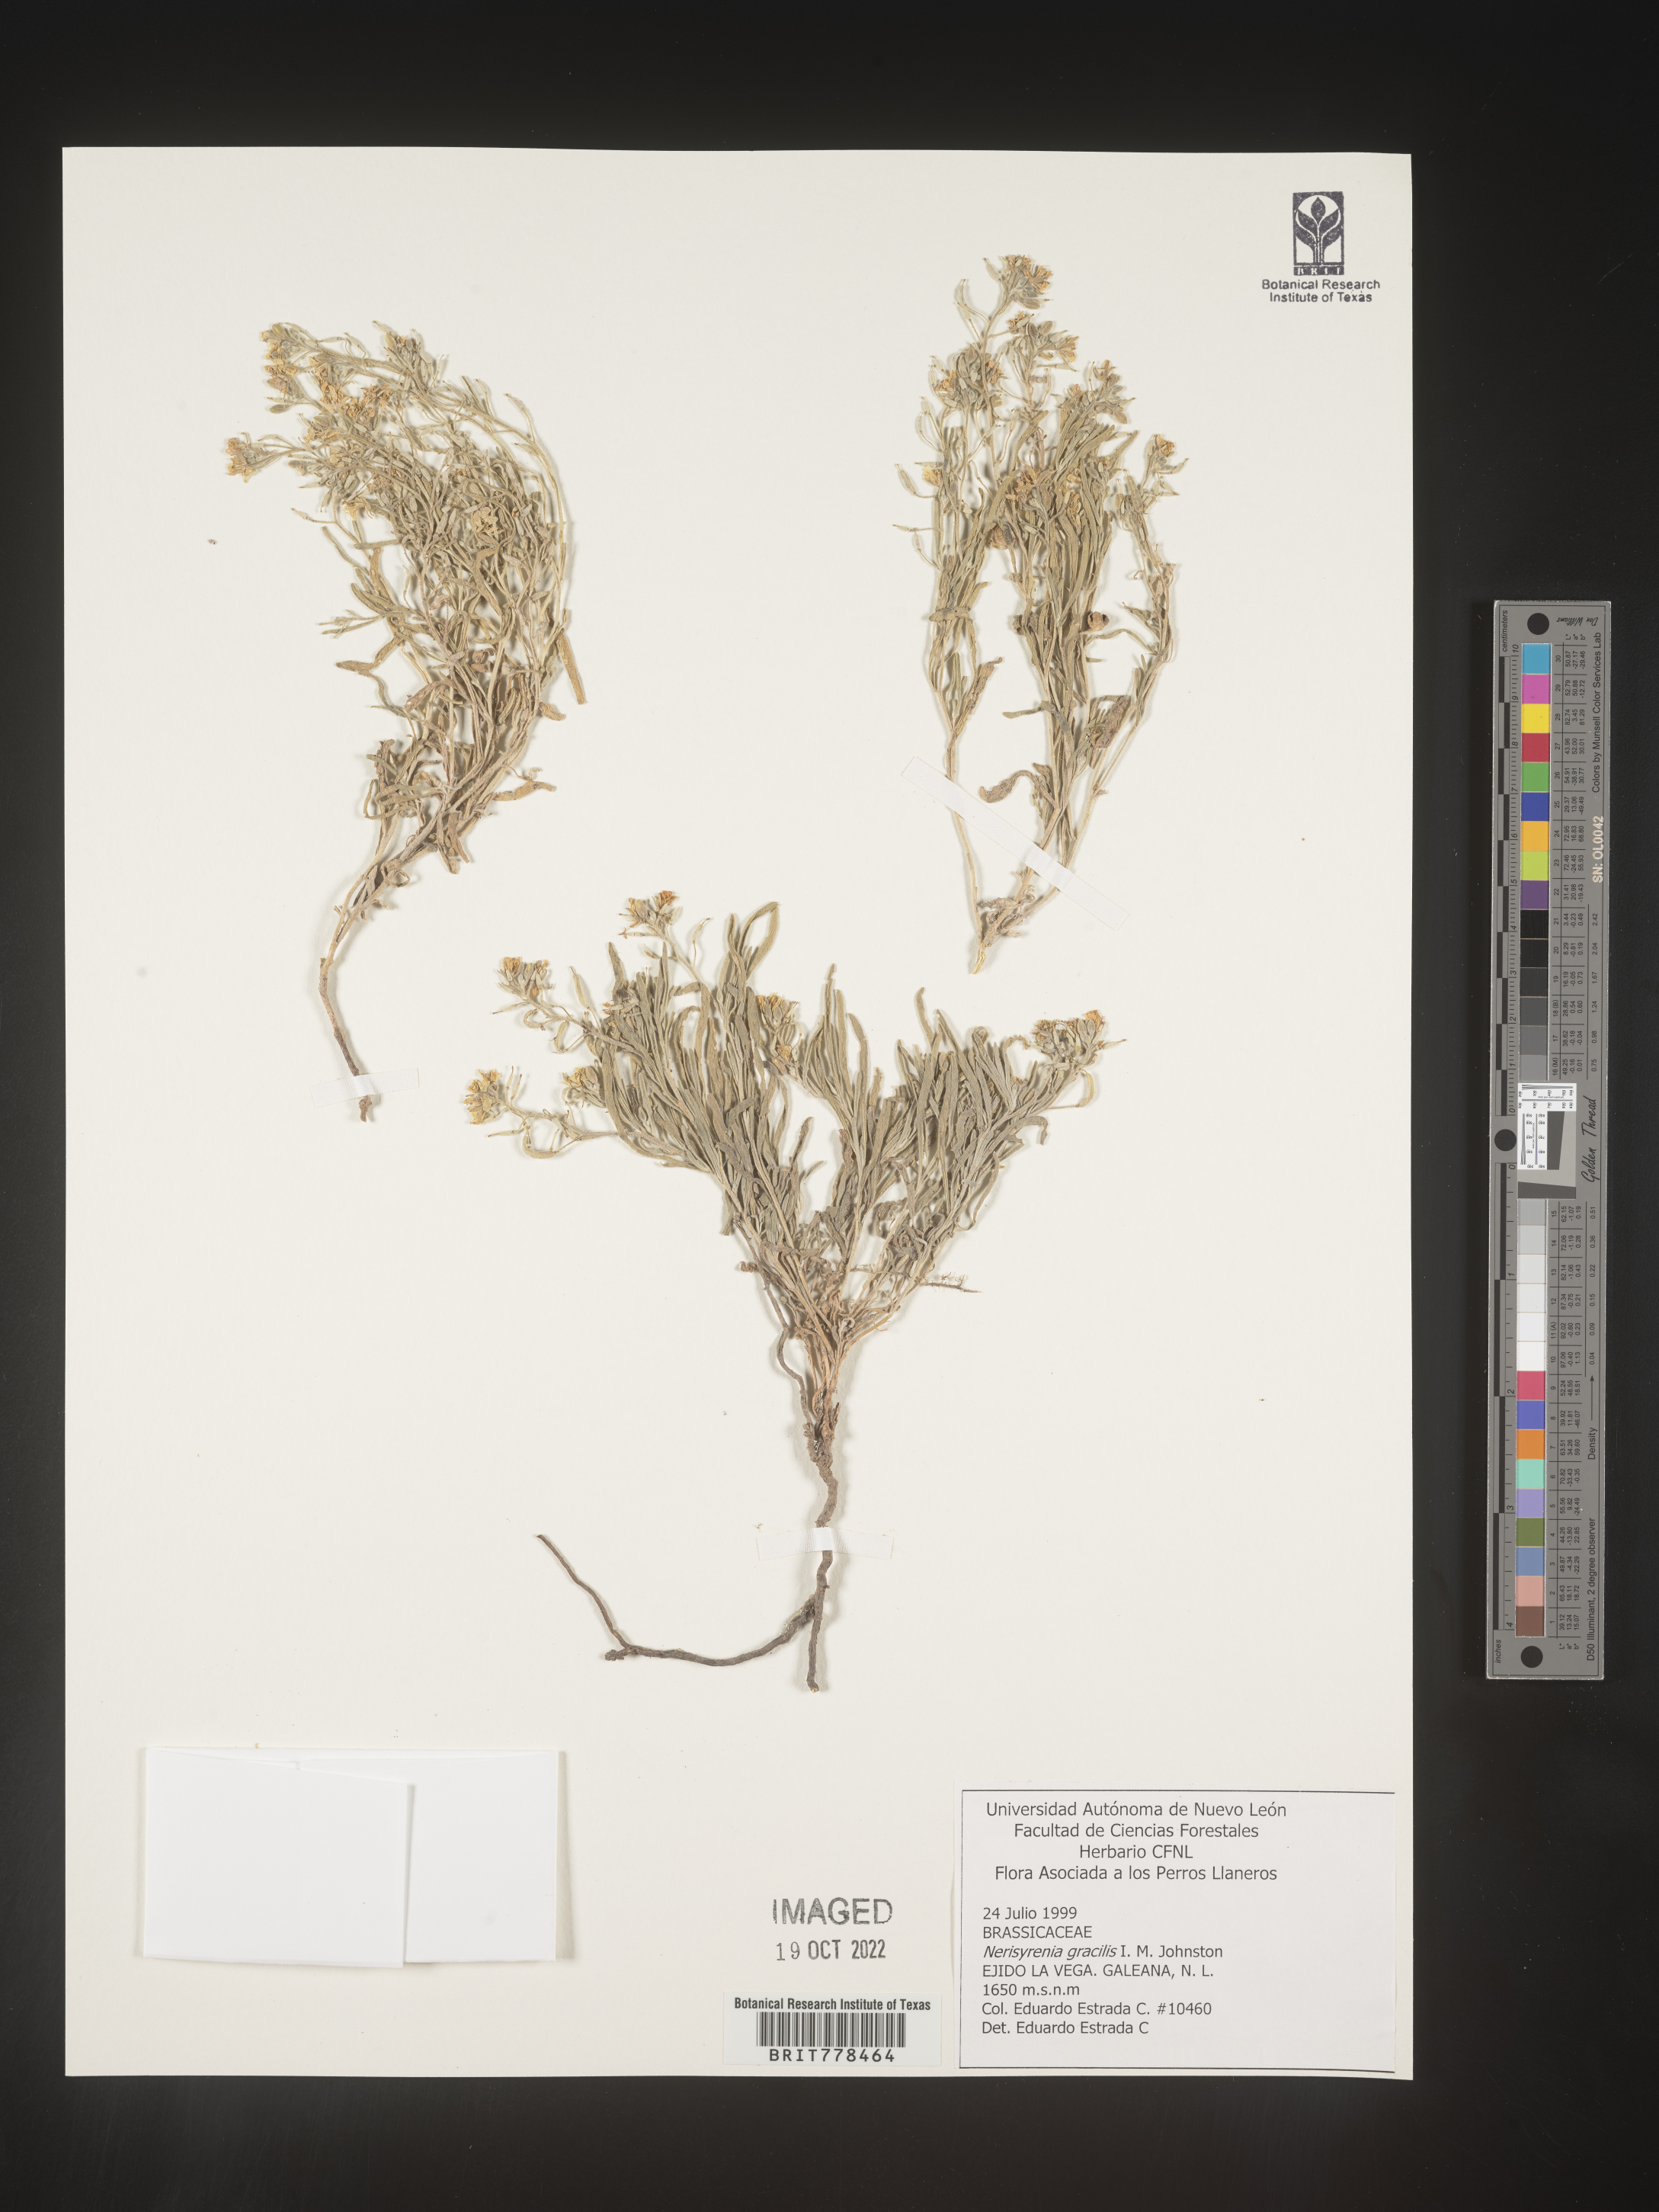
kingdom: Plantae
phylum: Tracheophyta
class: Magnoliopsida
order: Brassicales
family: Brassicaceae
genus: Nerisyrenia
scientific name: Nerisyrenia
